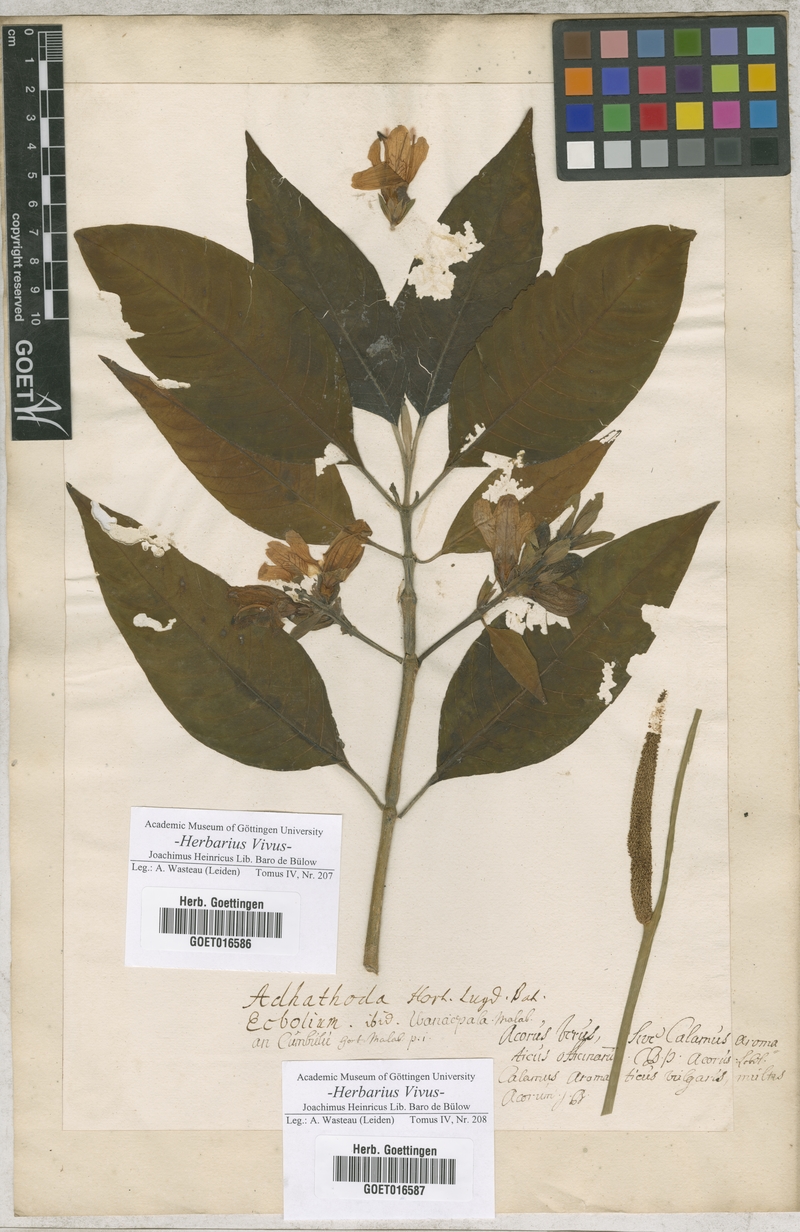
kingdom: Plantae
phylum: Tracheophyta
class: Magnoliopsida
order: Lamiales
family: Acanthaceae
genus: Justicia
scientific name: Justicia adhatoda
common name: Malabar nut
